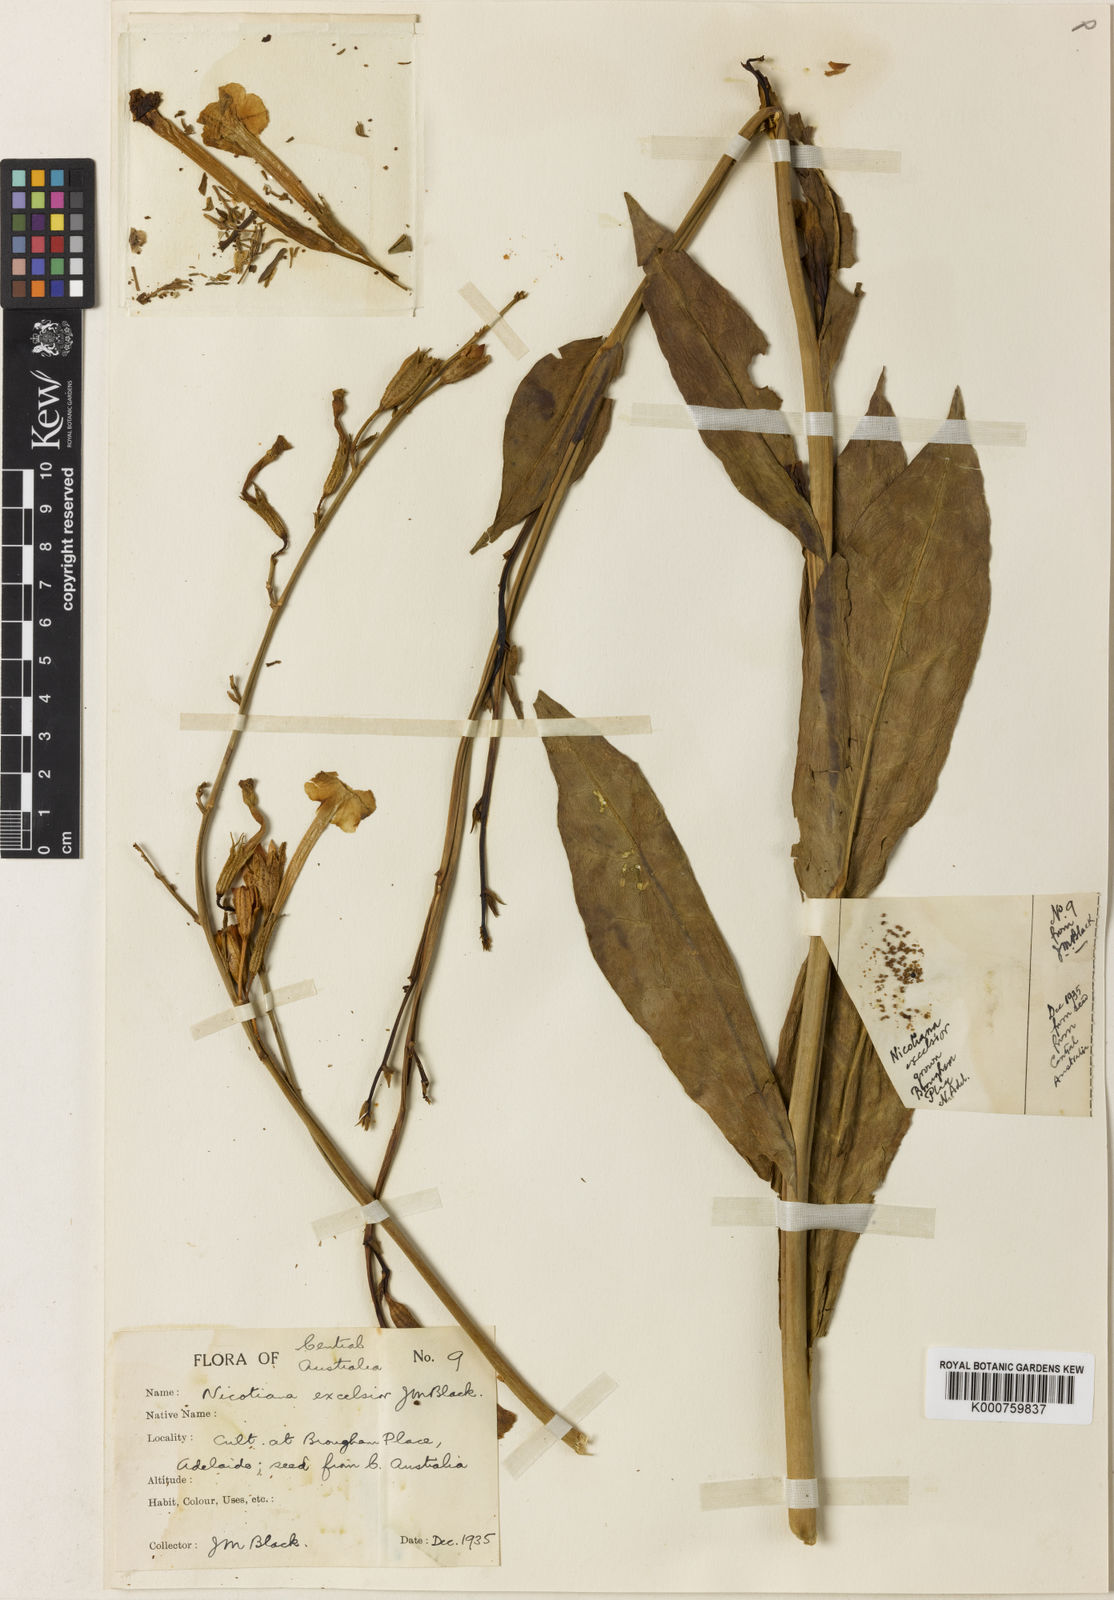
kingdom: Plantae
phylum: Tracheophyta
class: Magnoliopsida
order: Solanales
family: Solanaceae
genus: Nicotiana
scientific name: Nicotiana excelsior
